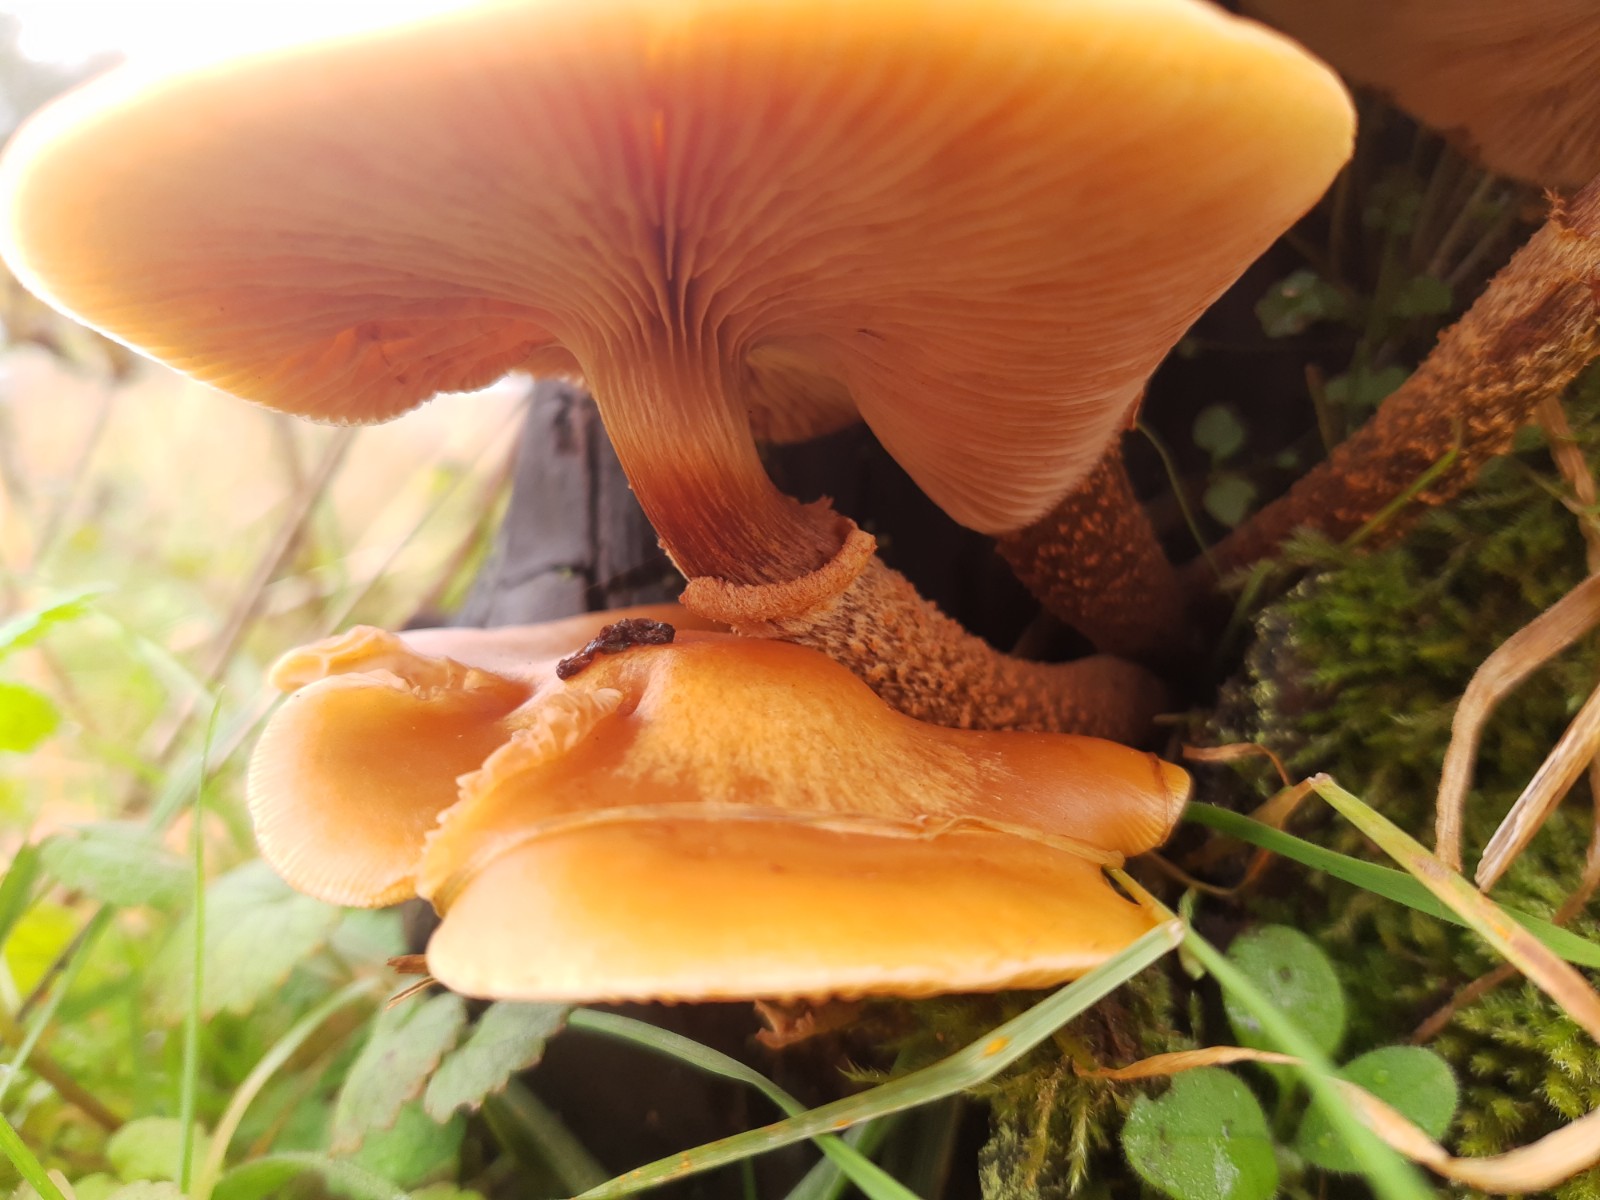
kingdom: Fungi
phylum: Basidiomycota
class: Agaricomycetes
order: Agaricales
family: Strophariaceae
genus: Kuehneromyces
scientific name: Kuehneromyces mutabilis
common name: foranderlig skælhat
